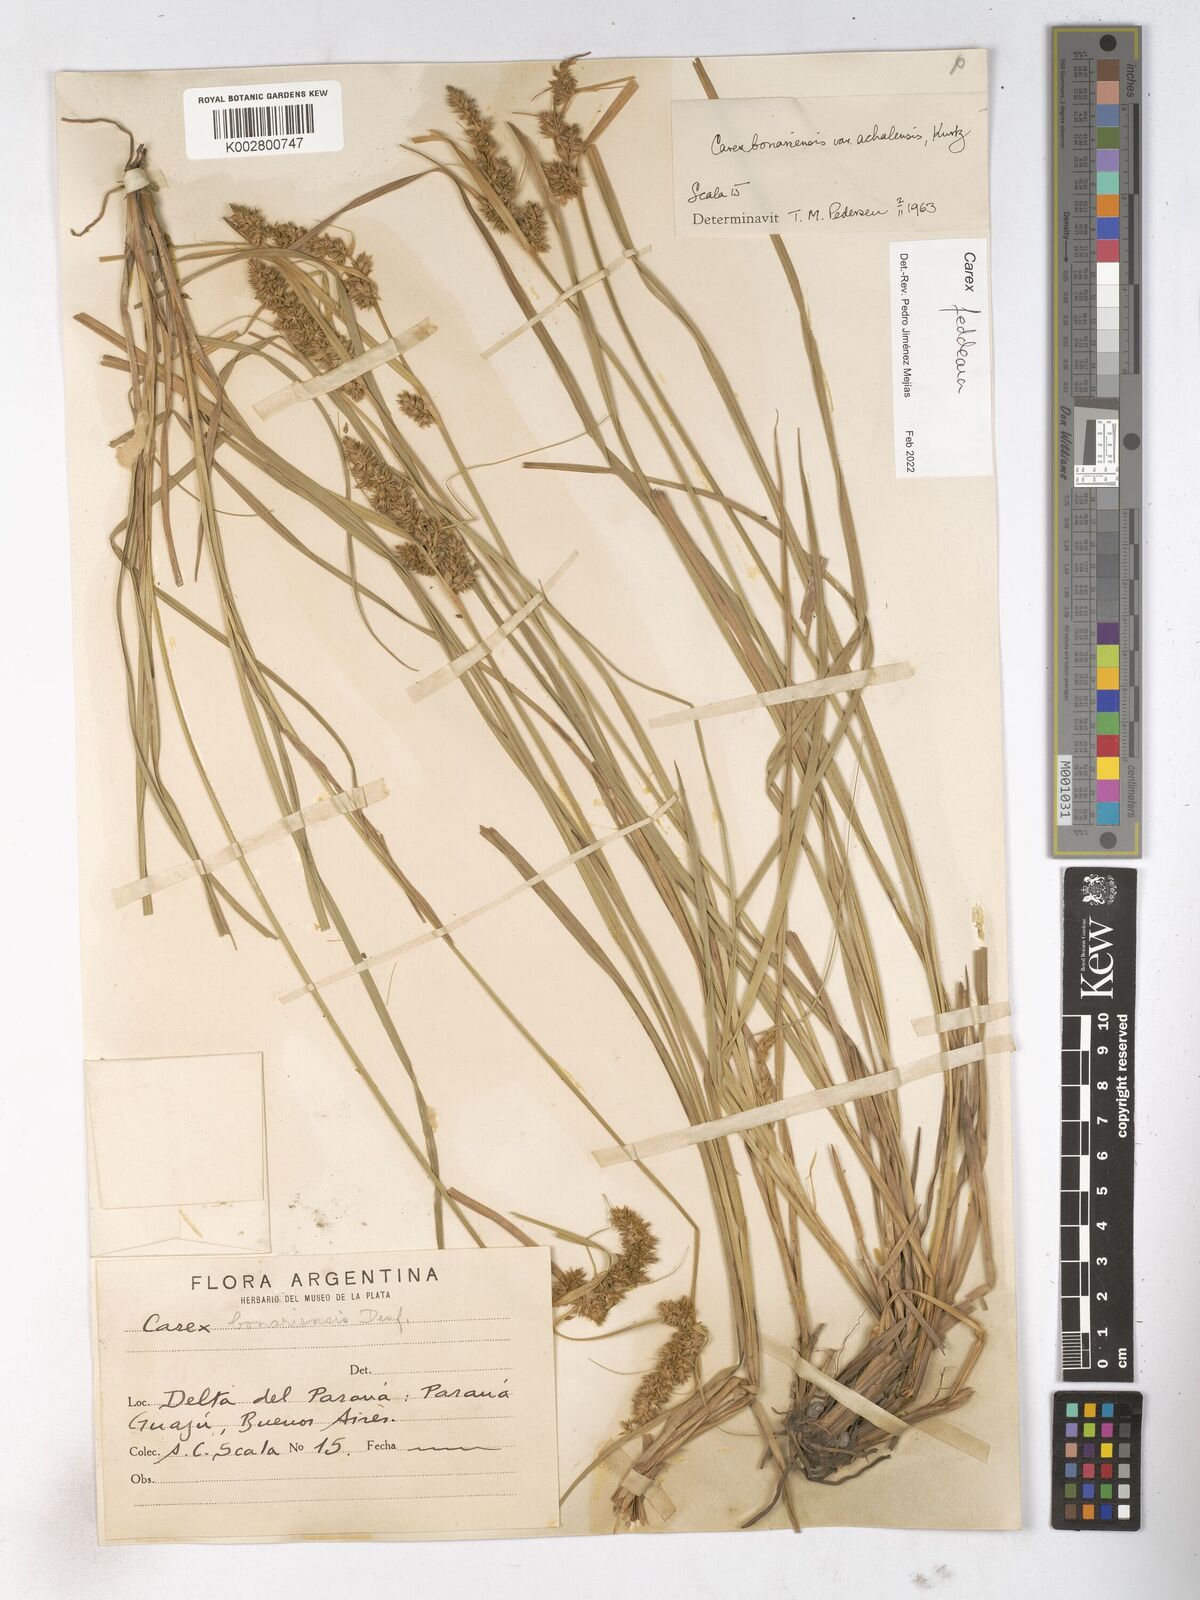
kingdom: Plantae
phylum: Tracheophyta
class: Liliopsida
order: Poales
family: Cyperaceae
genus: Carex
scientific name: Carex bonariensis
